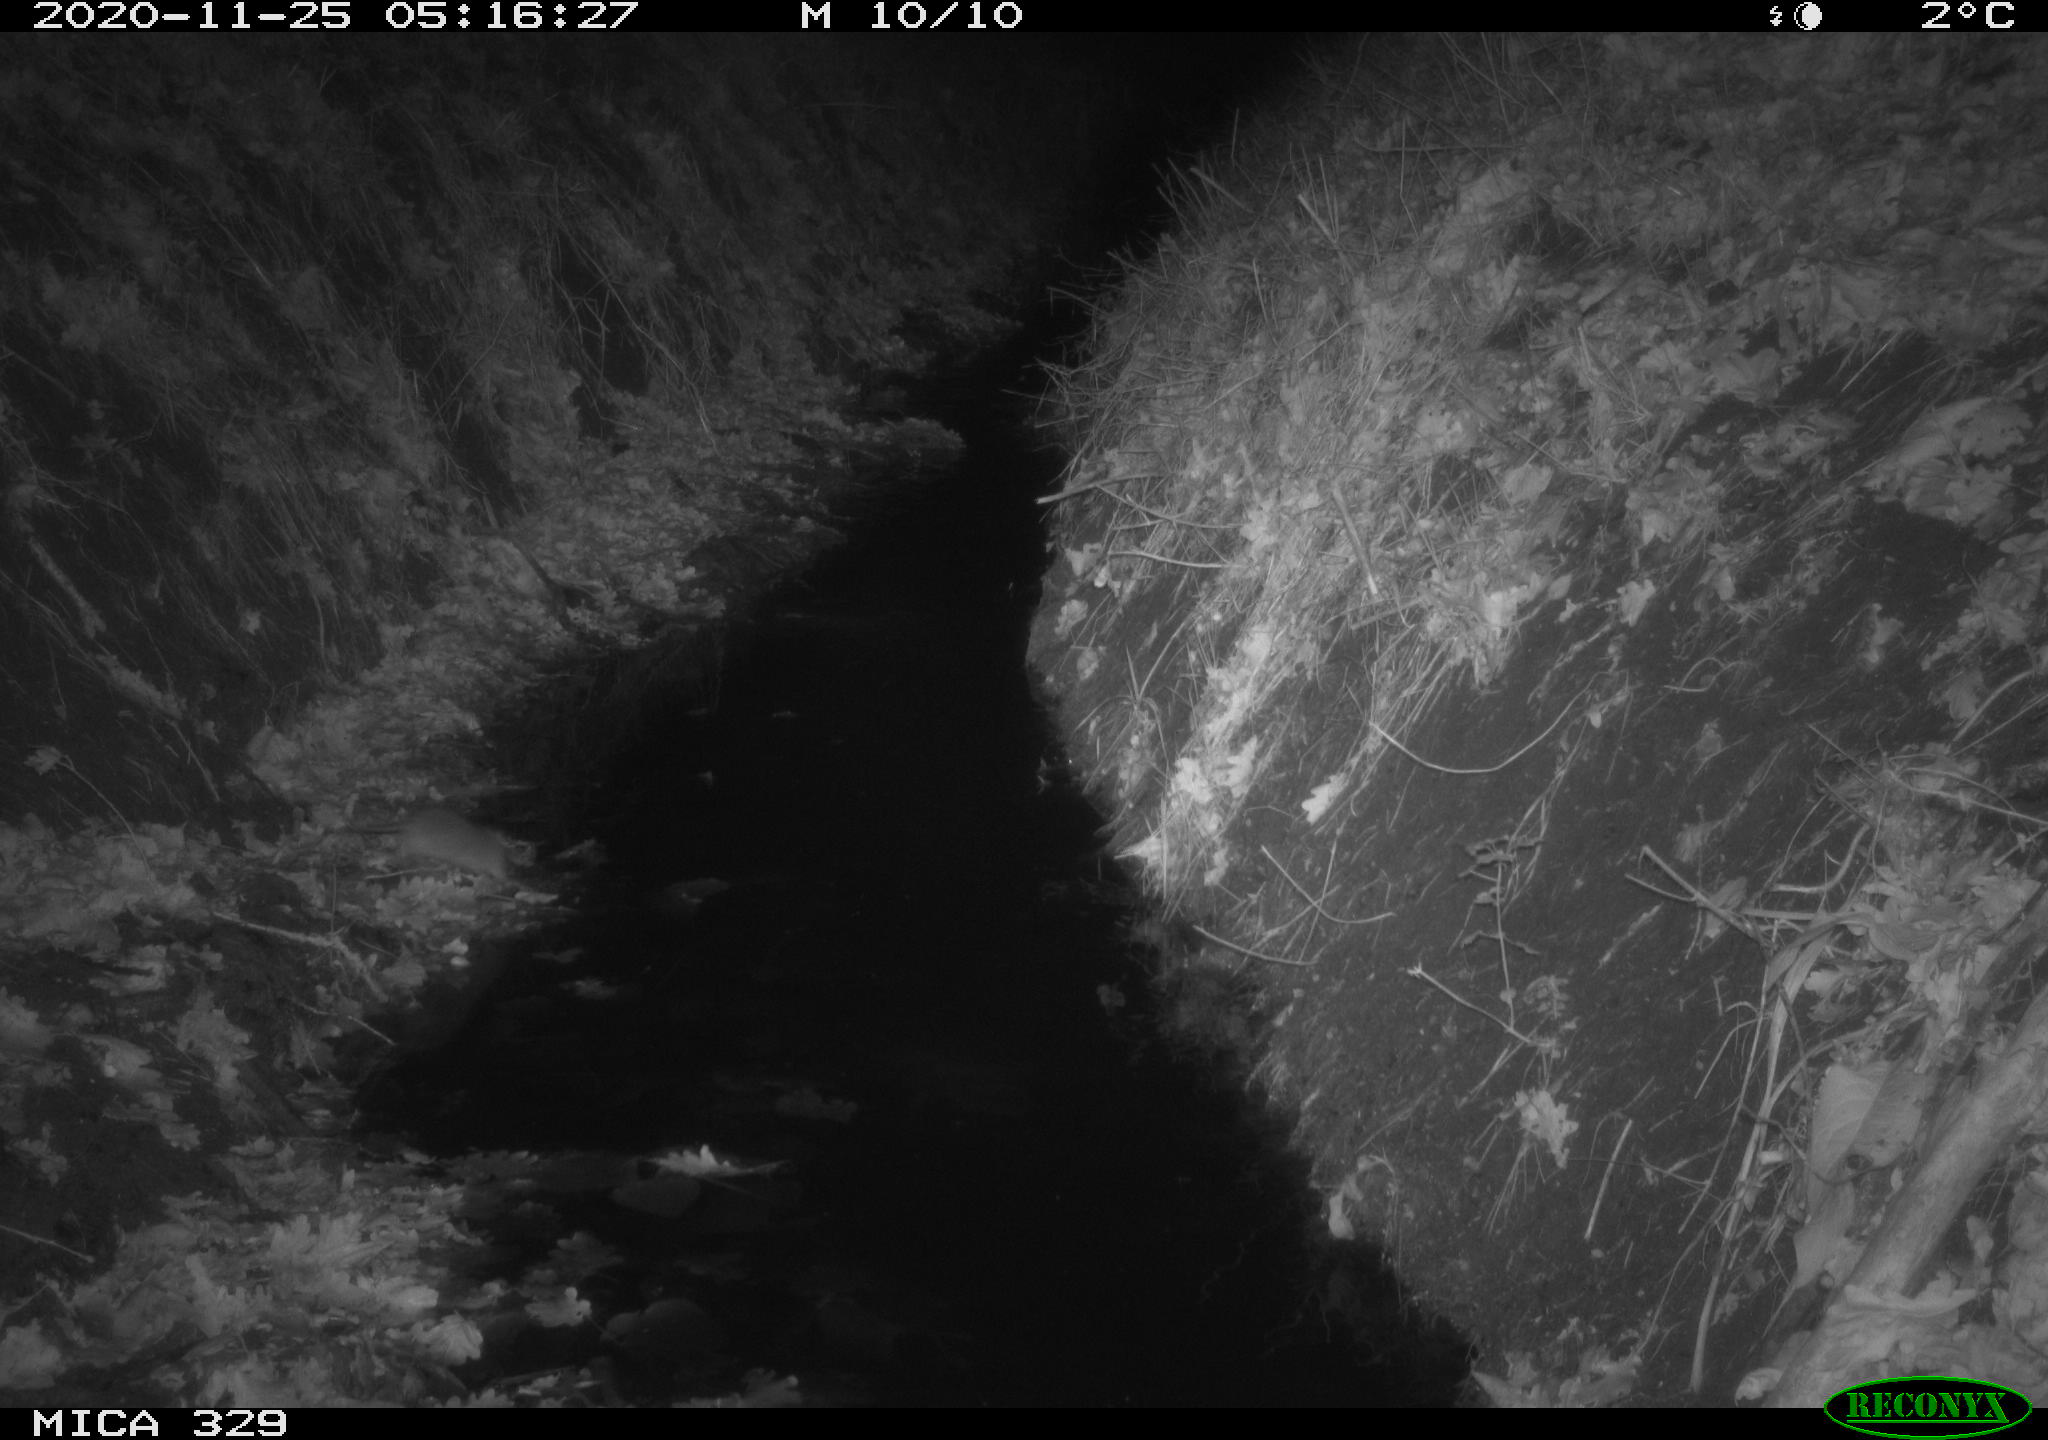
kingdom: Animalia
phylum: Chordata
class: Mammalia
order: Rodentia
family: Muridae
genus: Rattus
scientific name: Rattus norvegicus
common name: Brown rat
